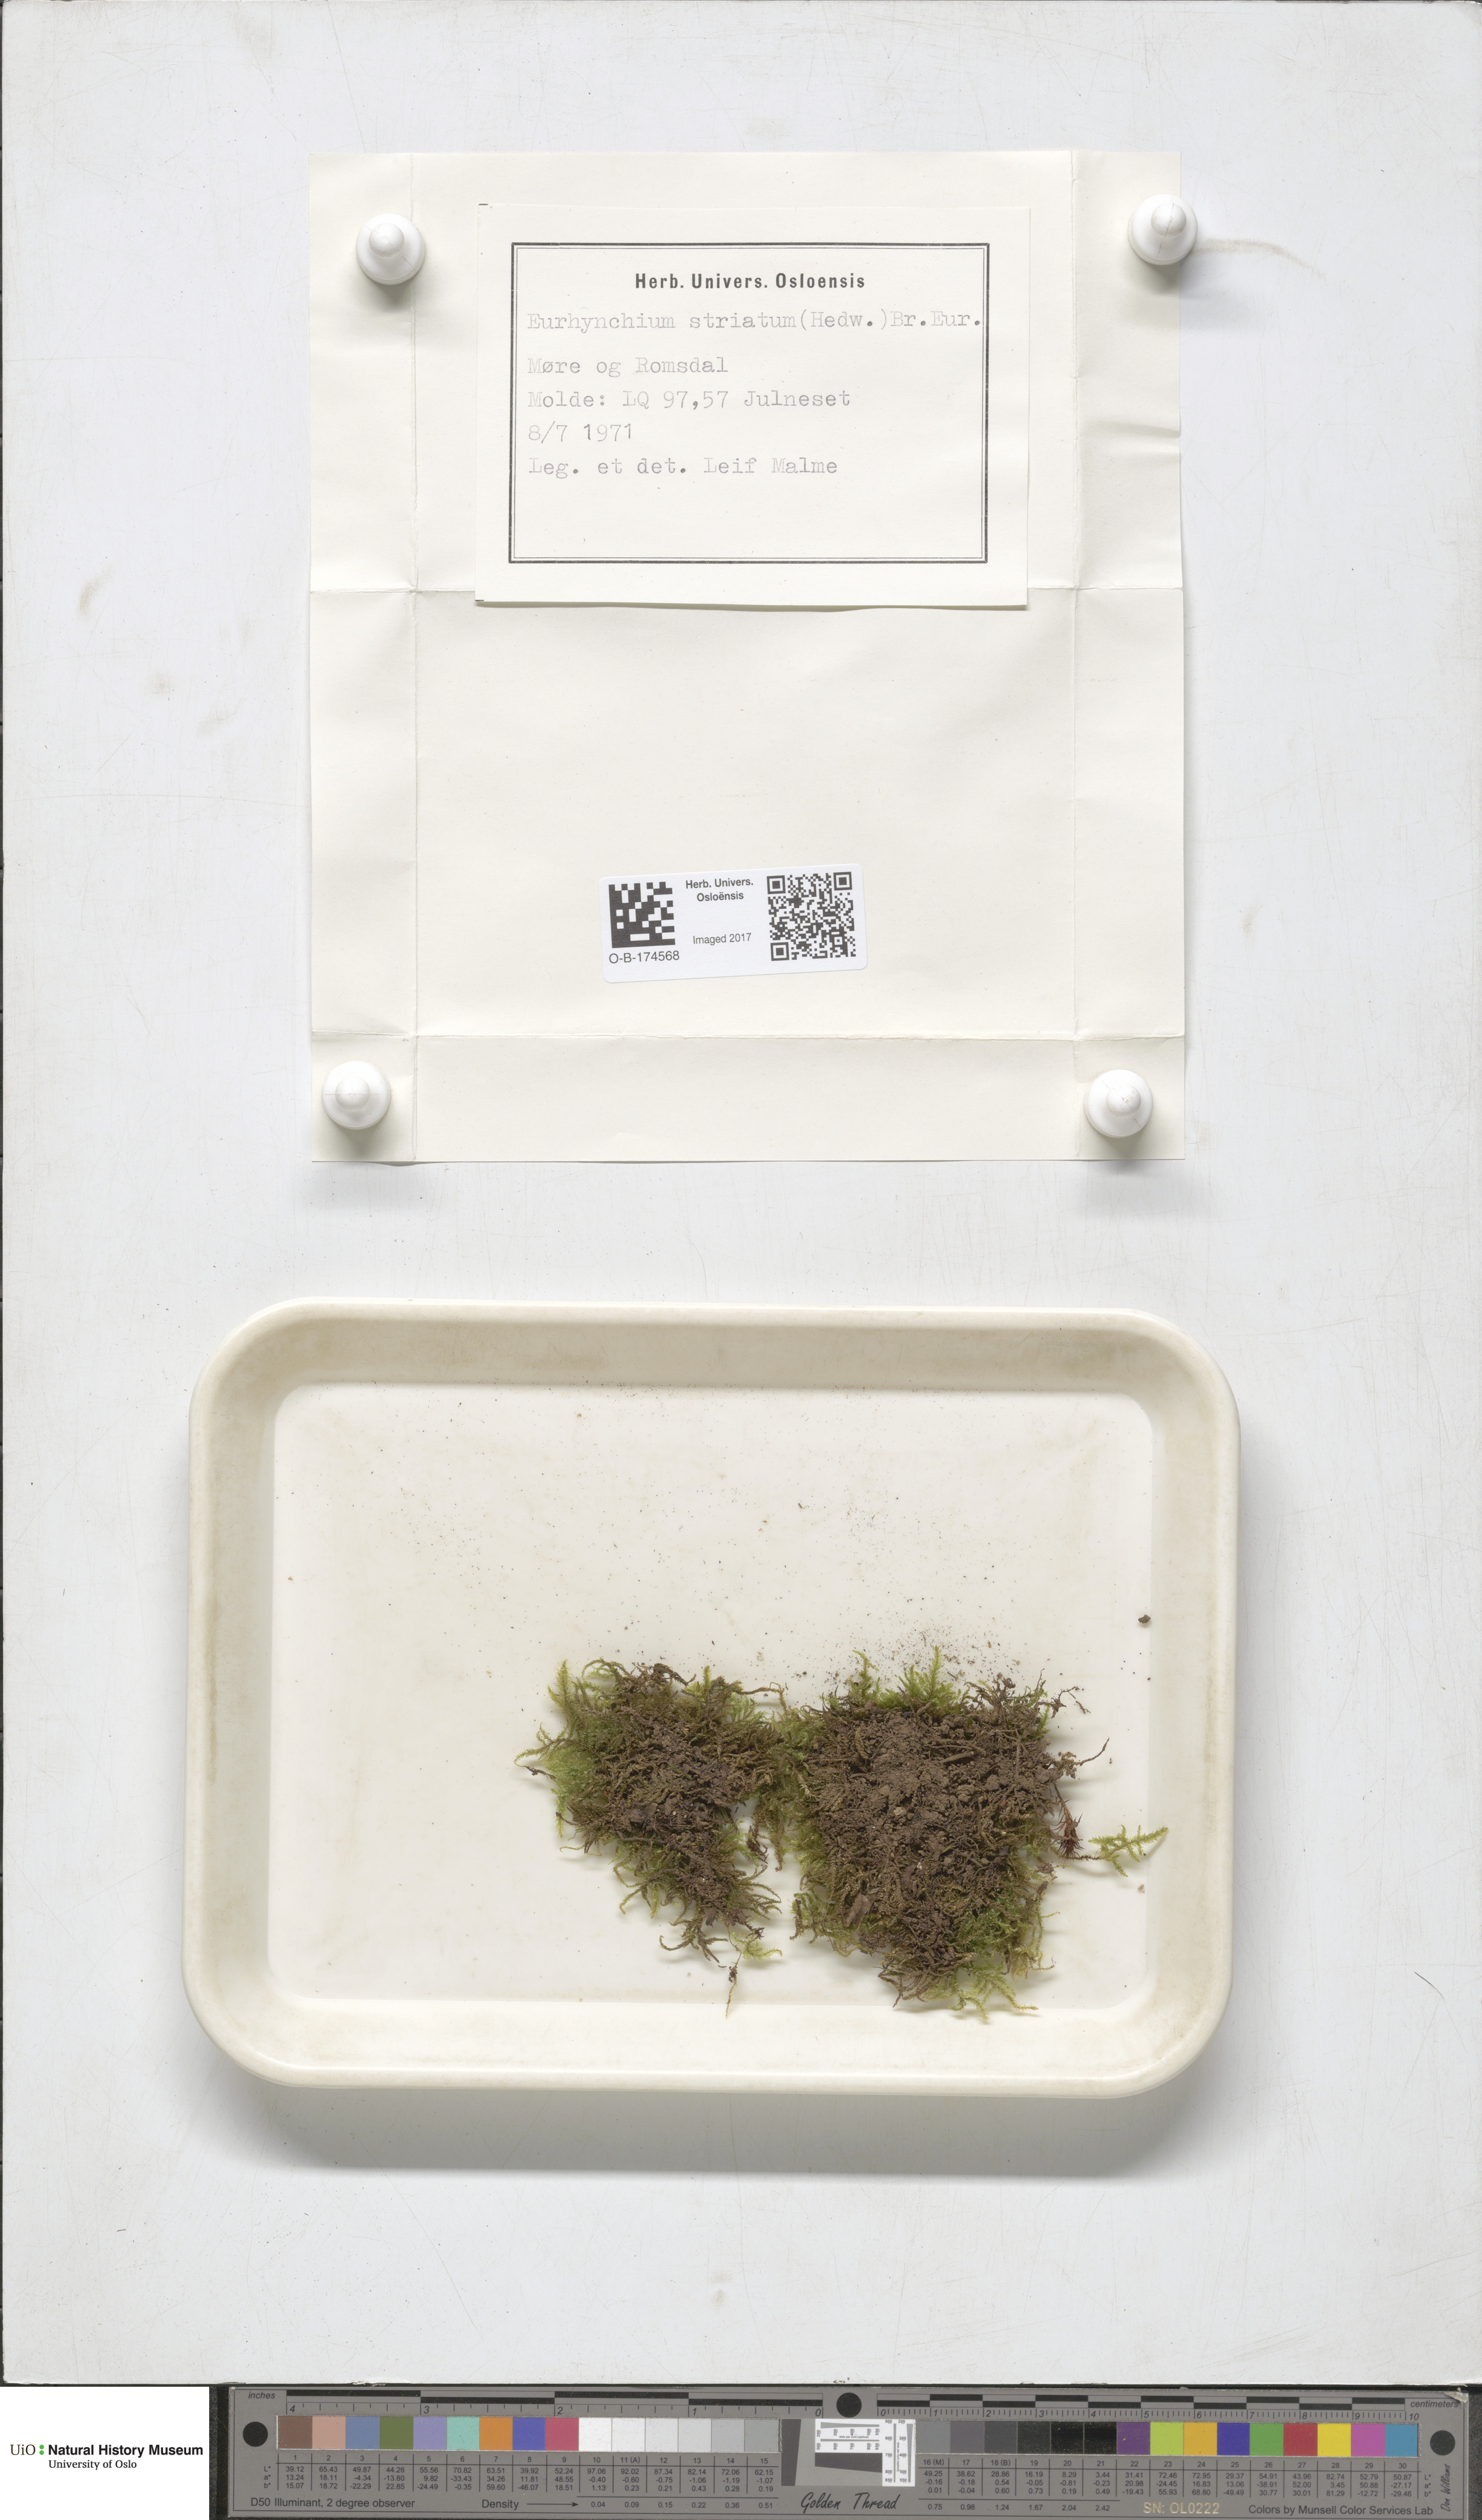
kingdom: Plantae
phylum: Bryophyta
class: Bryopsida
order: Hypnales
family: Brachytheciaceae
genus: Eurhynchium
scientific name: Eurhynchium striatum
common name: Common striated feather-moss
